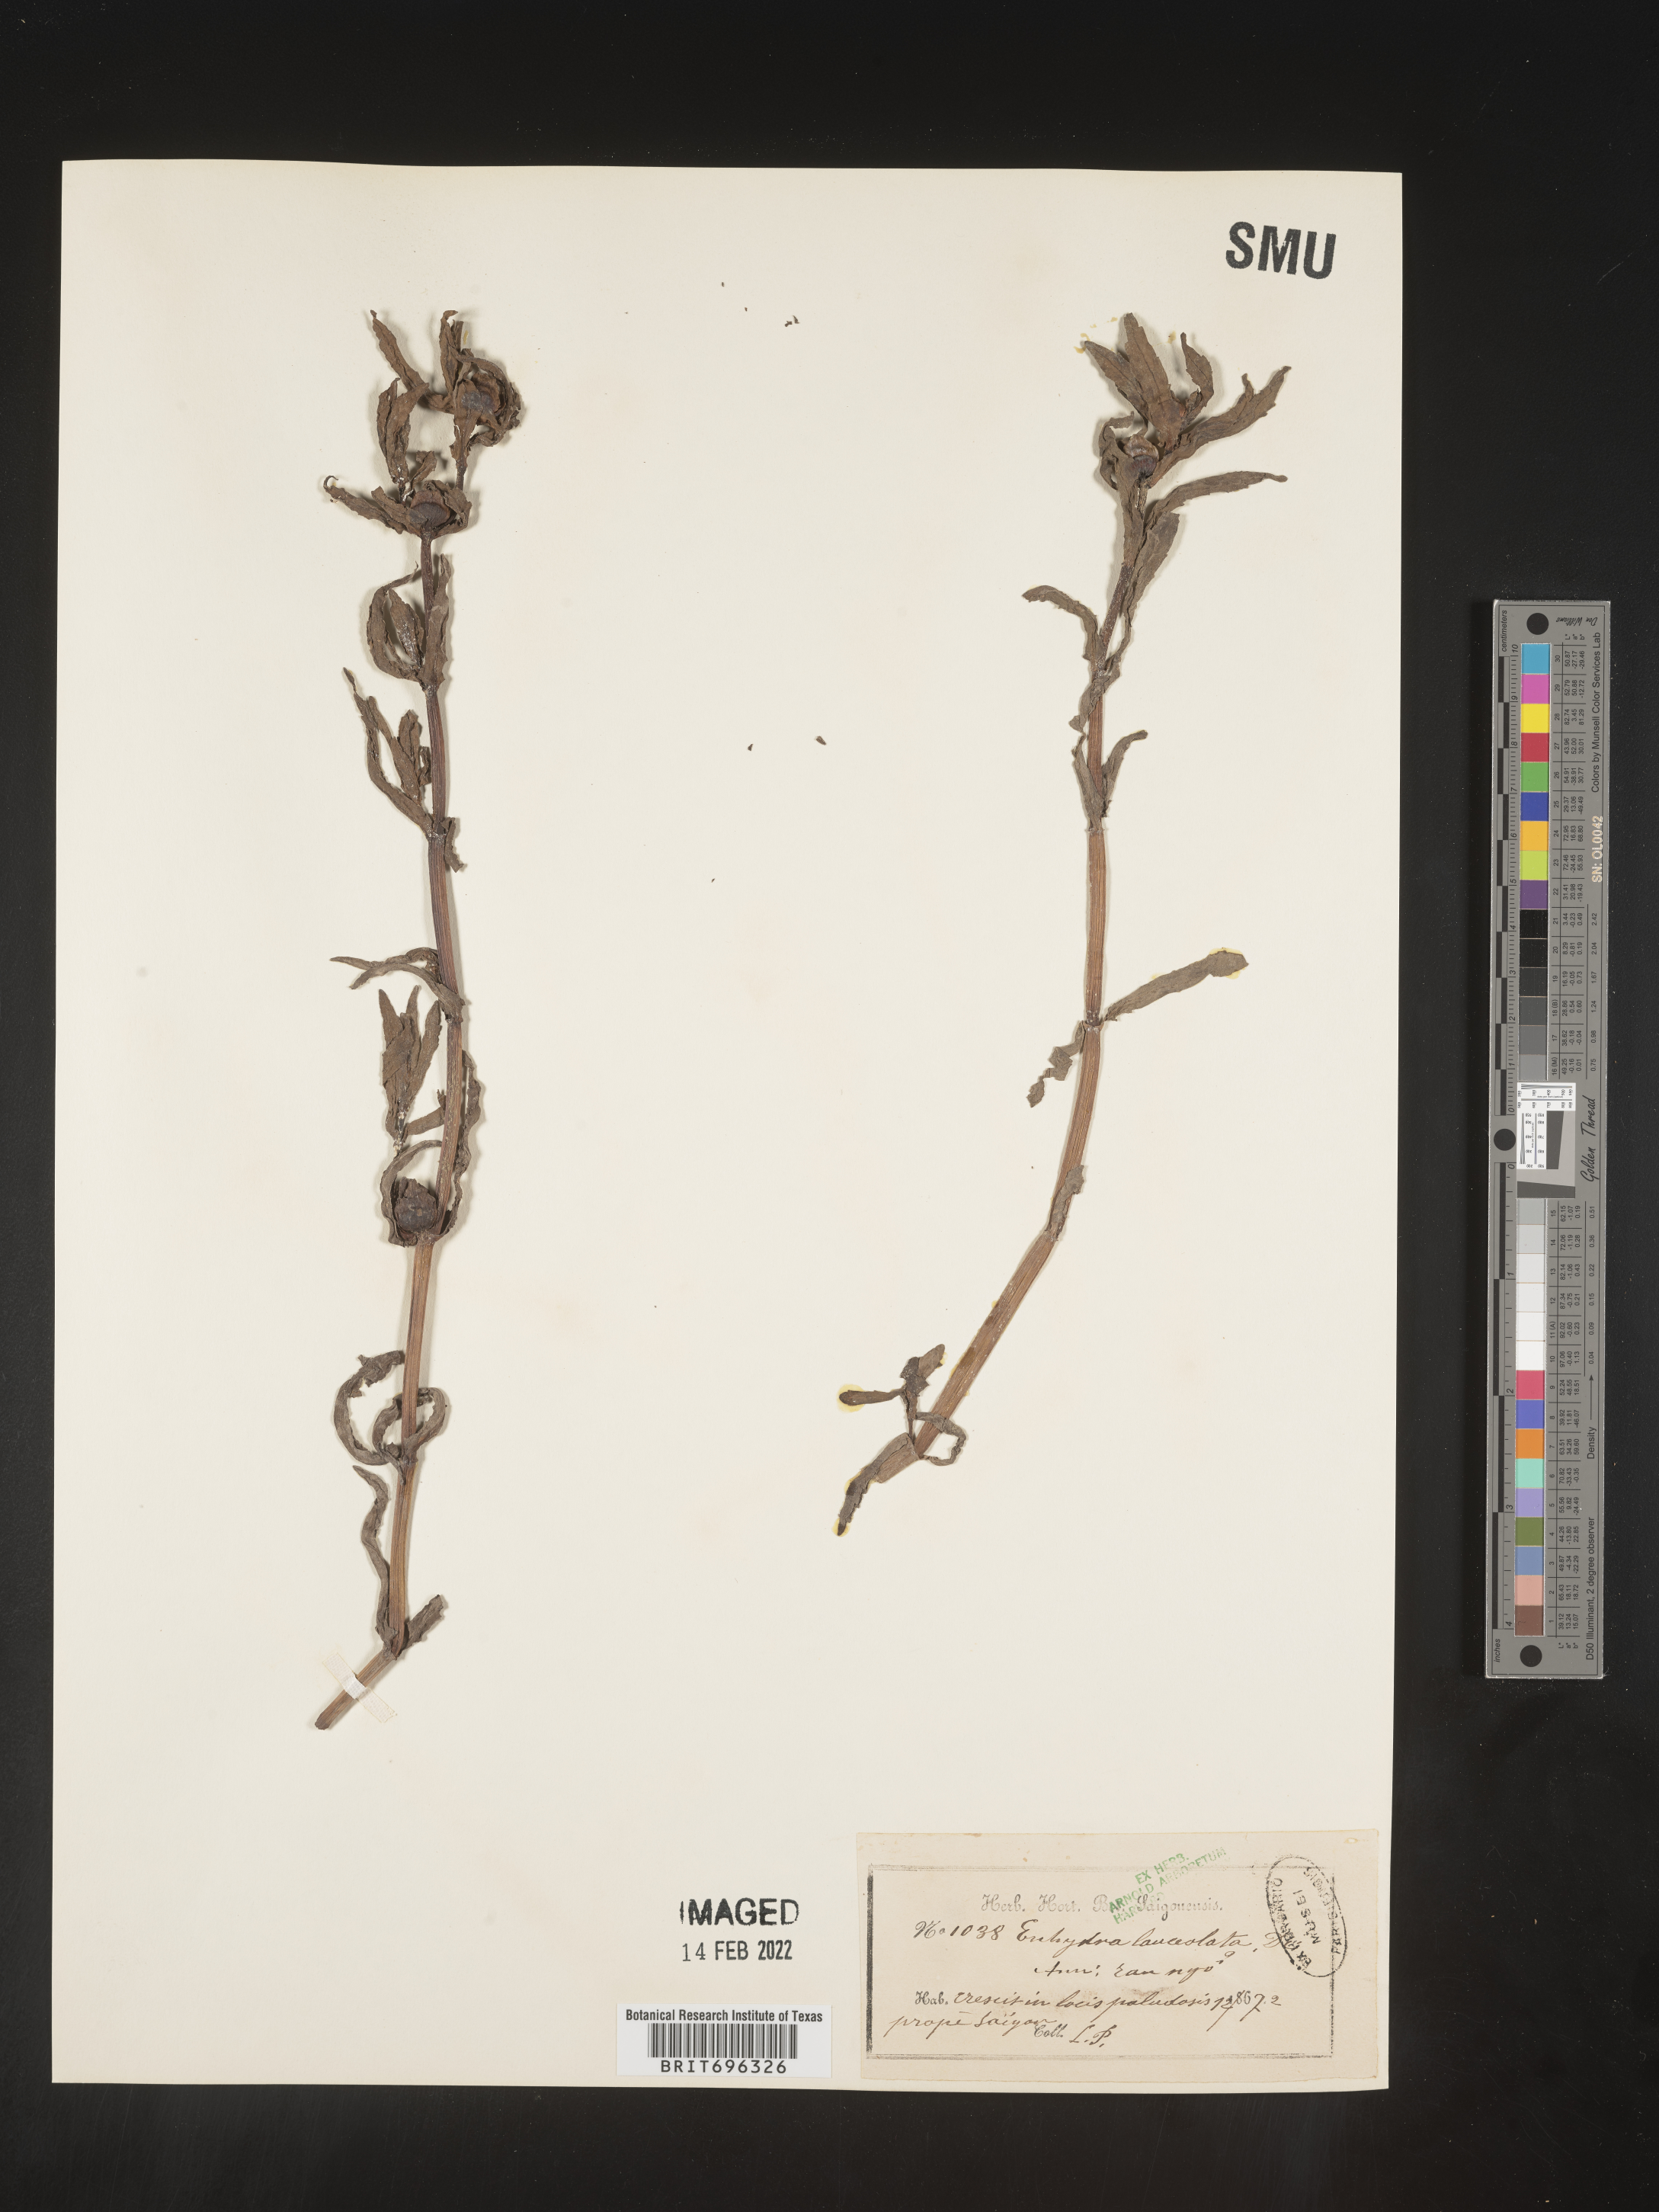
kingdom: Plantae
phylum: Tracheophyta
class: Magnoliopsida
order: Asterales
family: Asteraceae
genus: Enydra
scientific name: Enydra
